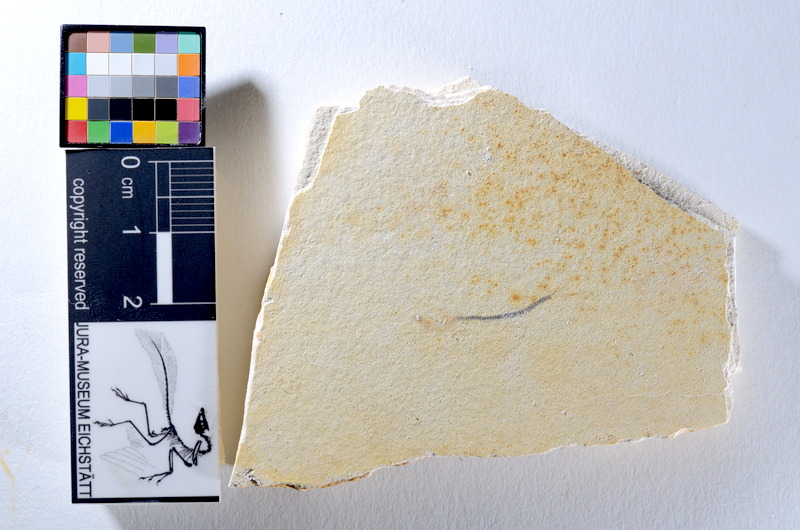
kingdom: Animalia
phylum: Chordata
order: Salmoniformes
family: Orthogonikleithridae
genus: Orthogonikleithrus
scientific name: Orthogonikleithrus hoelli
